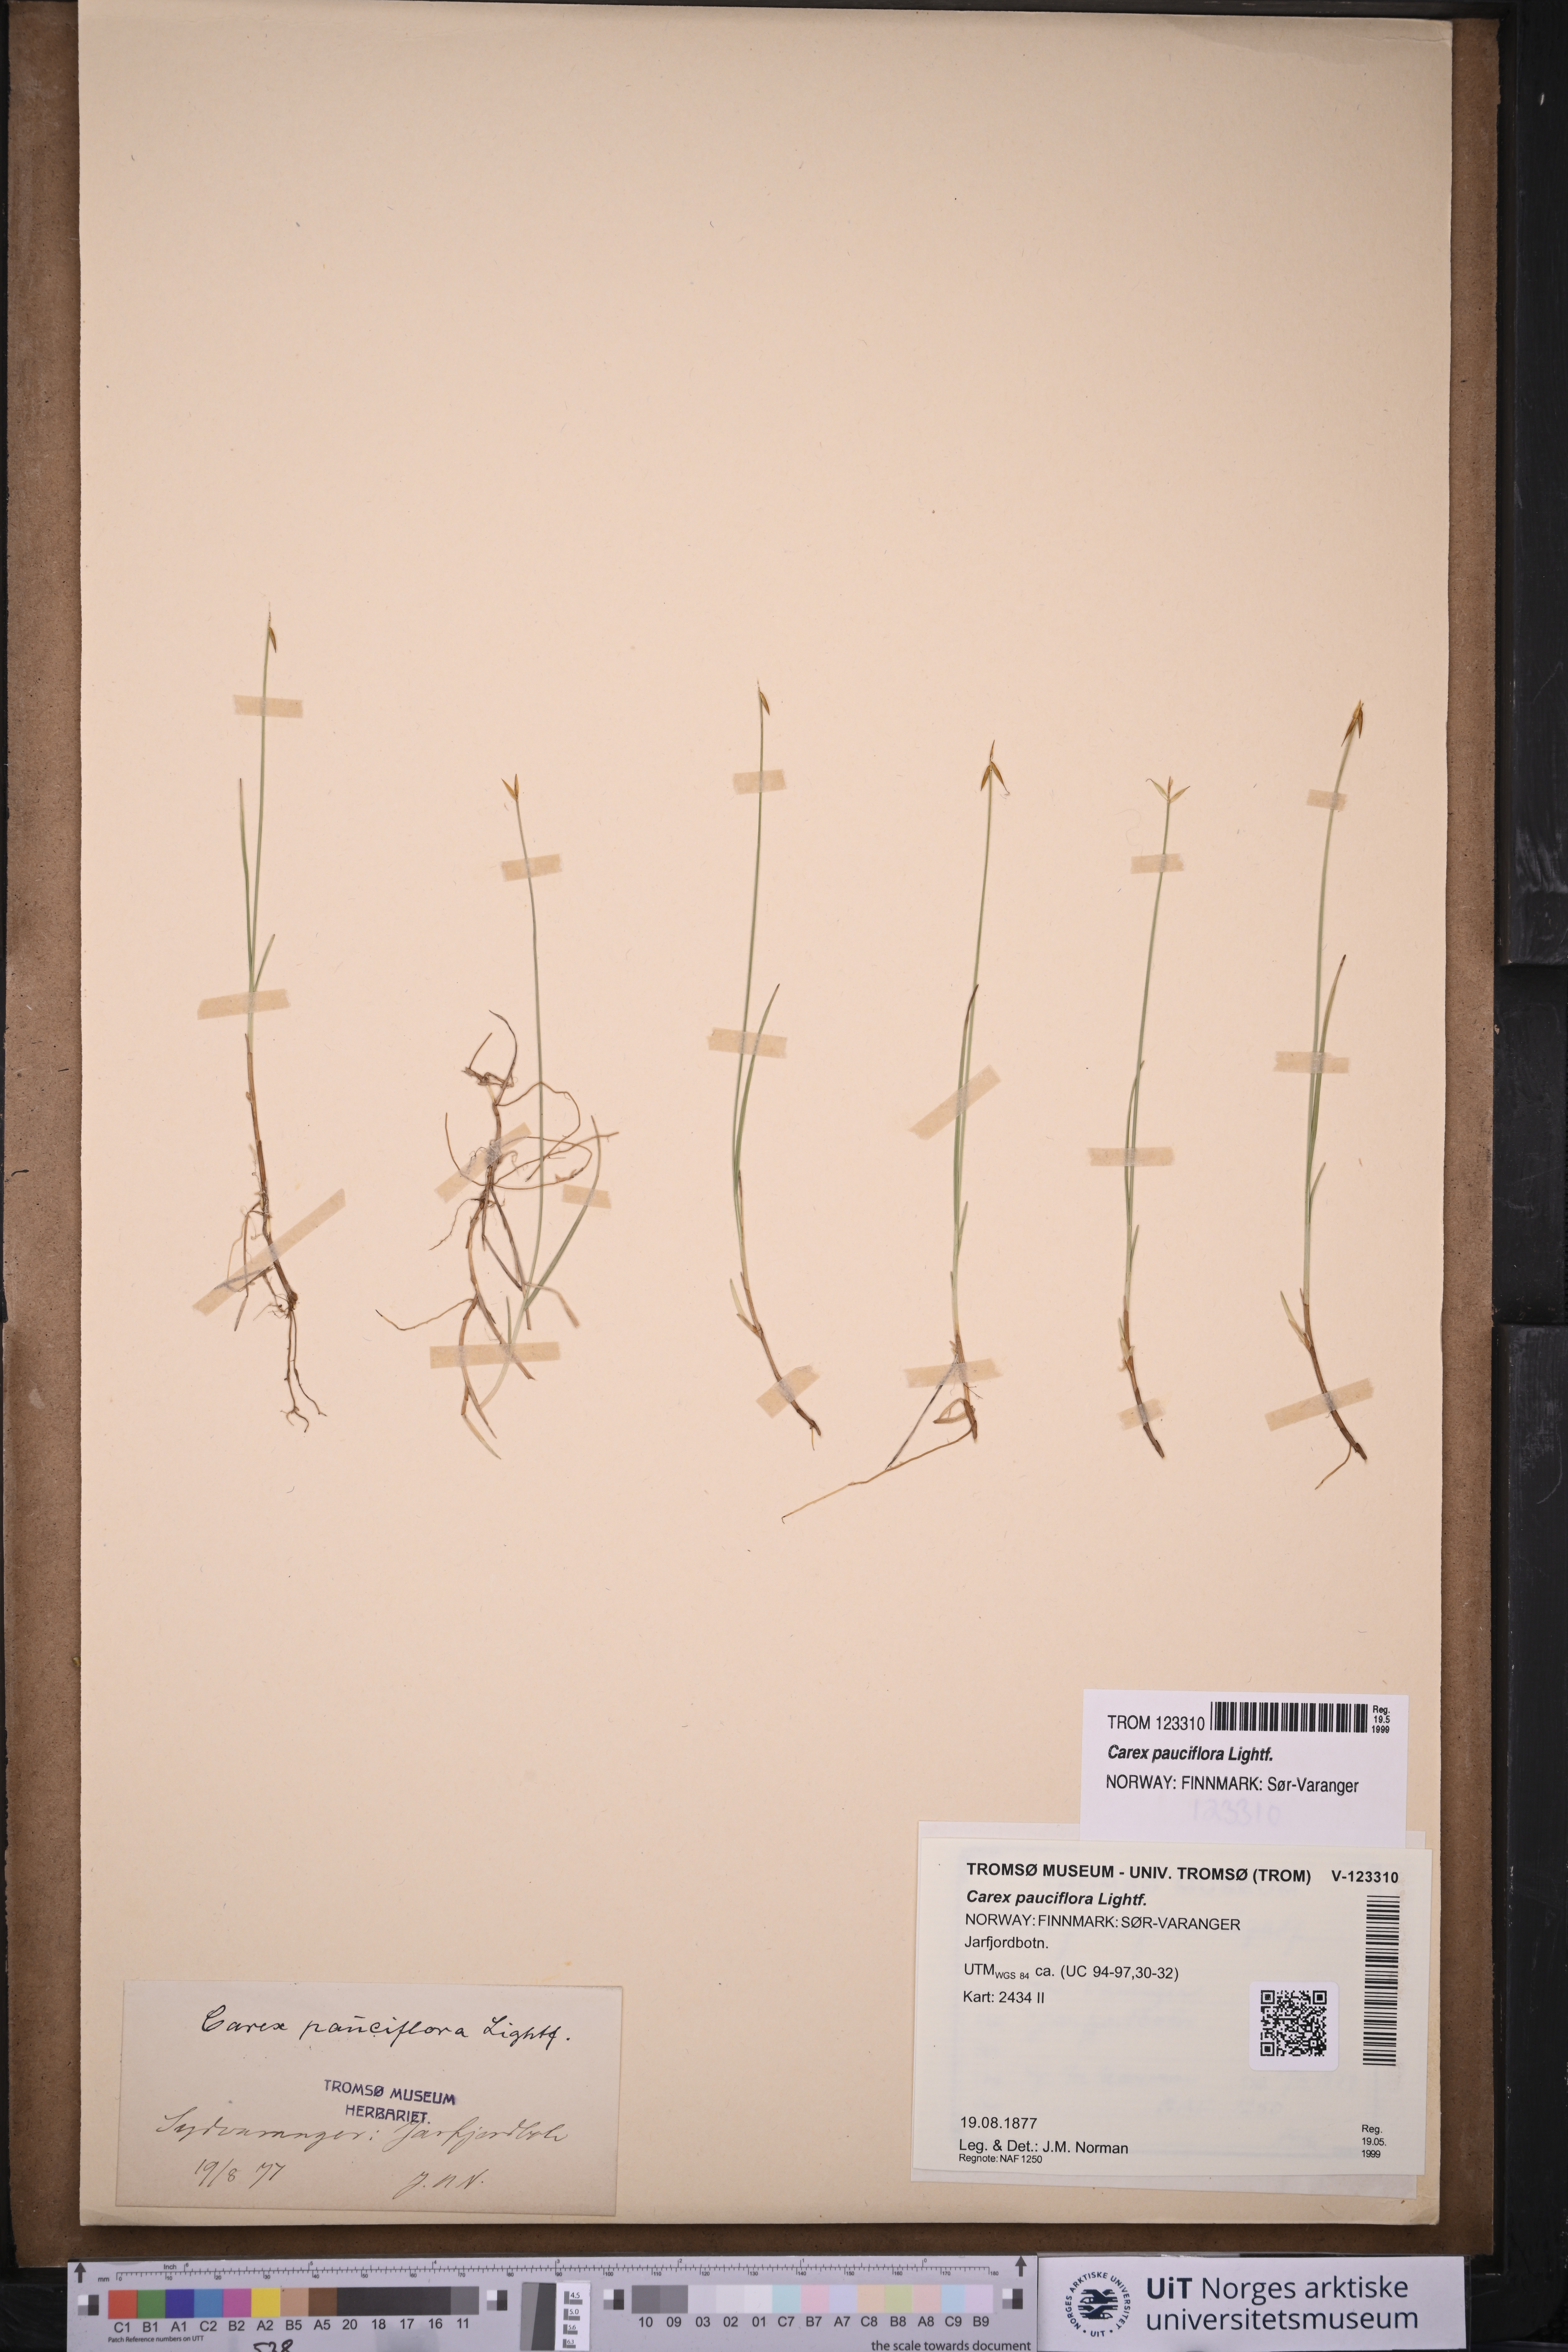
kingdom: Plantae
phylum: Tracheophyta
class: Liliopsida
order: Poales
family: Cyperaceae
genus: Carex
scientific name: Carex pauciflora
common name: Few-flowered sedge
